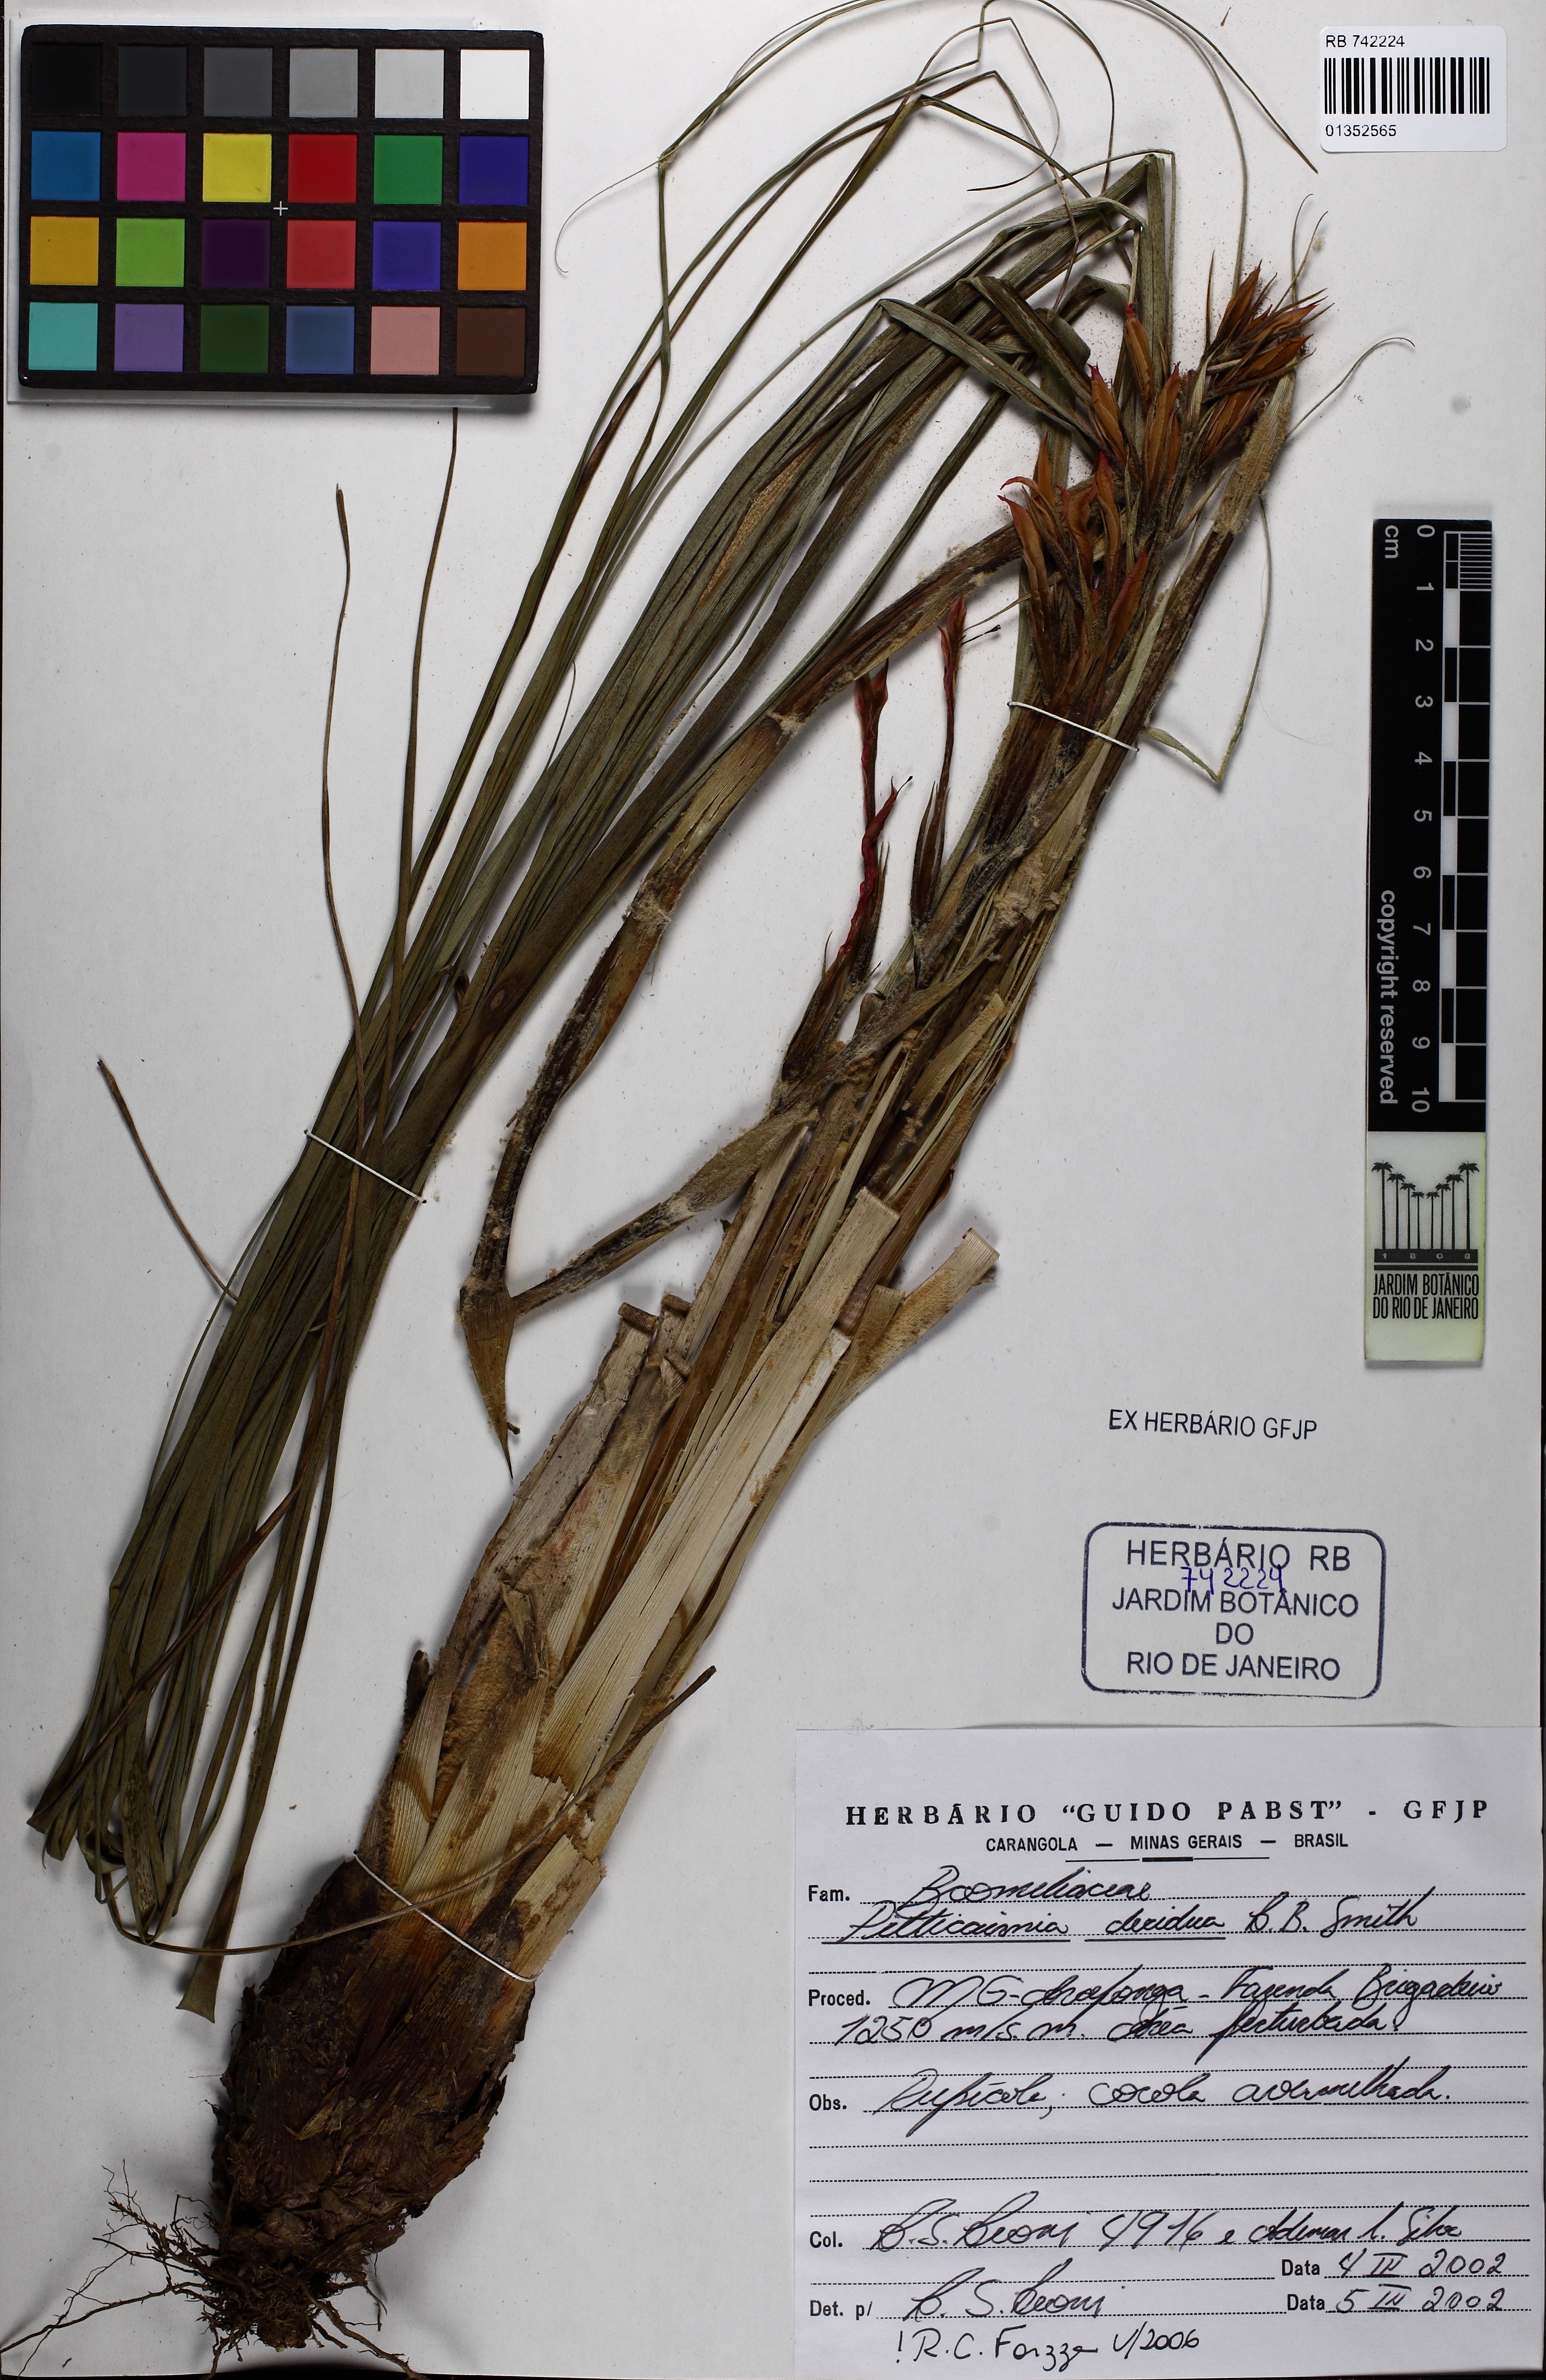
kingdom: Plantae
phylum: Tracheophyta
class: Liliopsida
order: Poales
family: Bromeliaceae
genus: Pitcairnia
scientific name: Pitcairnia decidua
